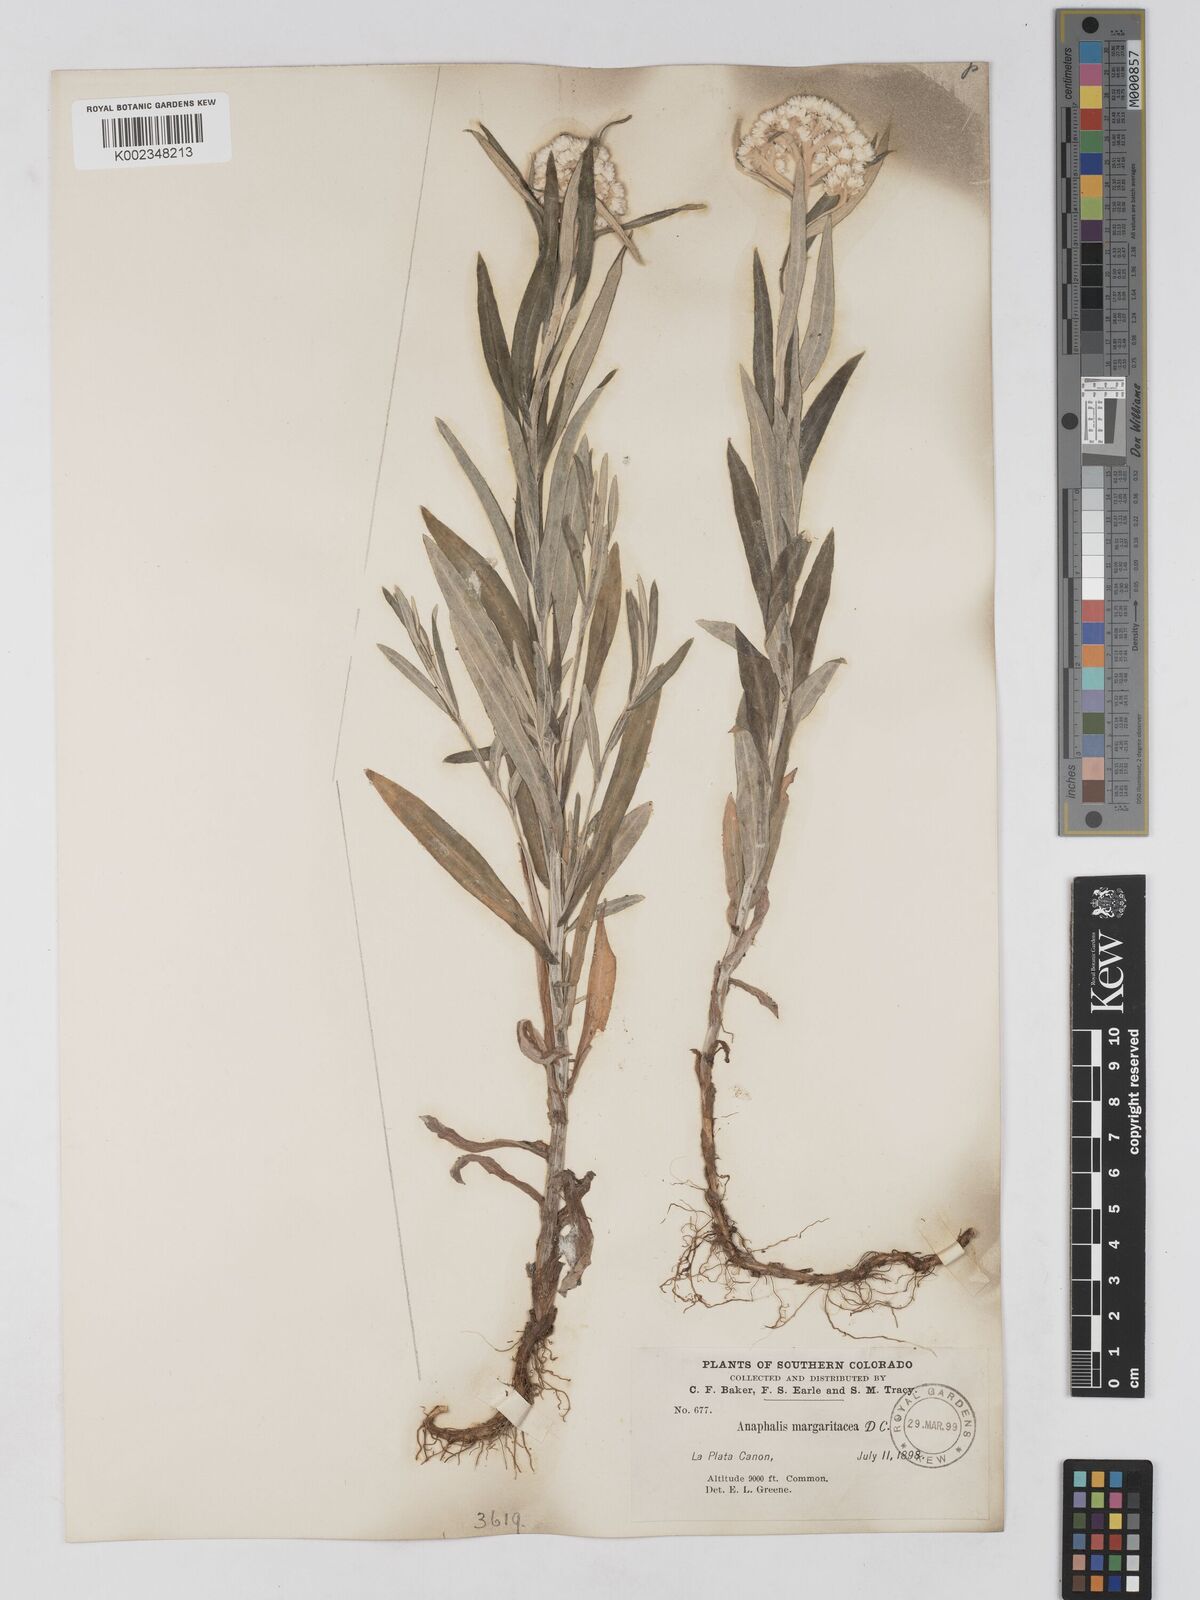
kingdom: Plantae
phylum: Tracheophyta
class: Magnoliopsida
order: Asterales
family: Asteraceae
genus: Anaphalis
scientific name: Anaphalis margaritacea
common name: Pearly everlasting
